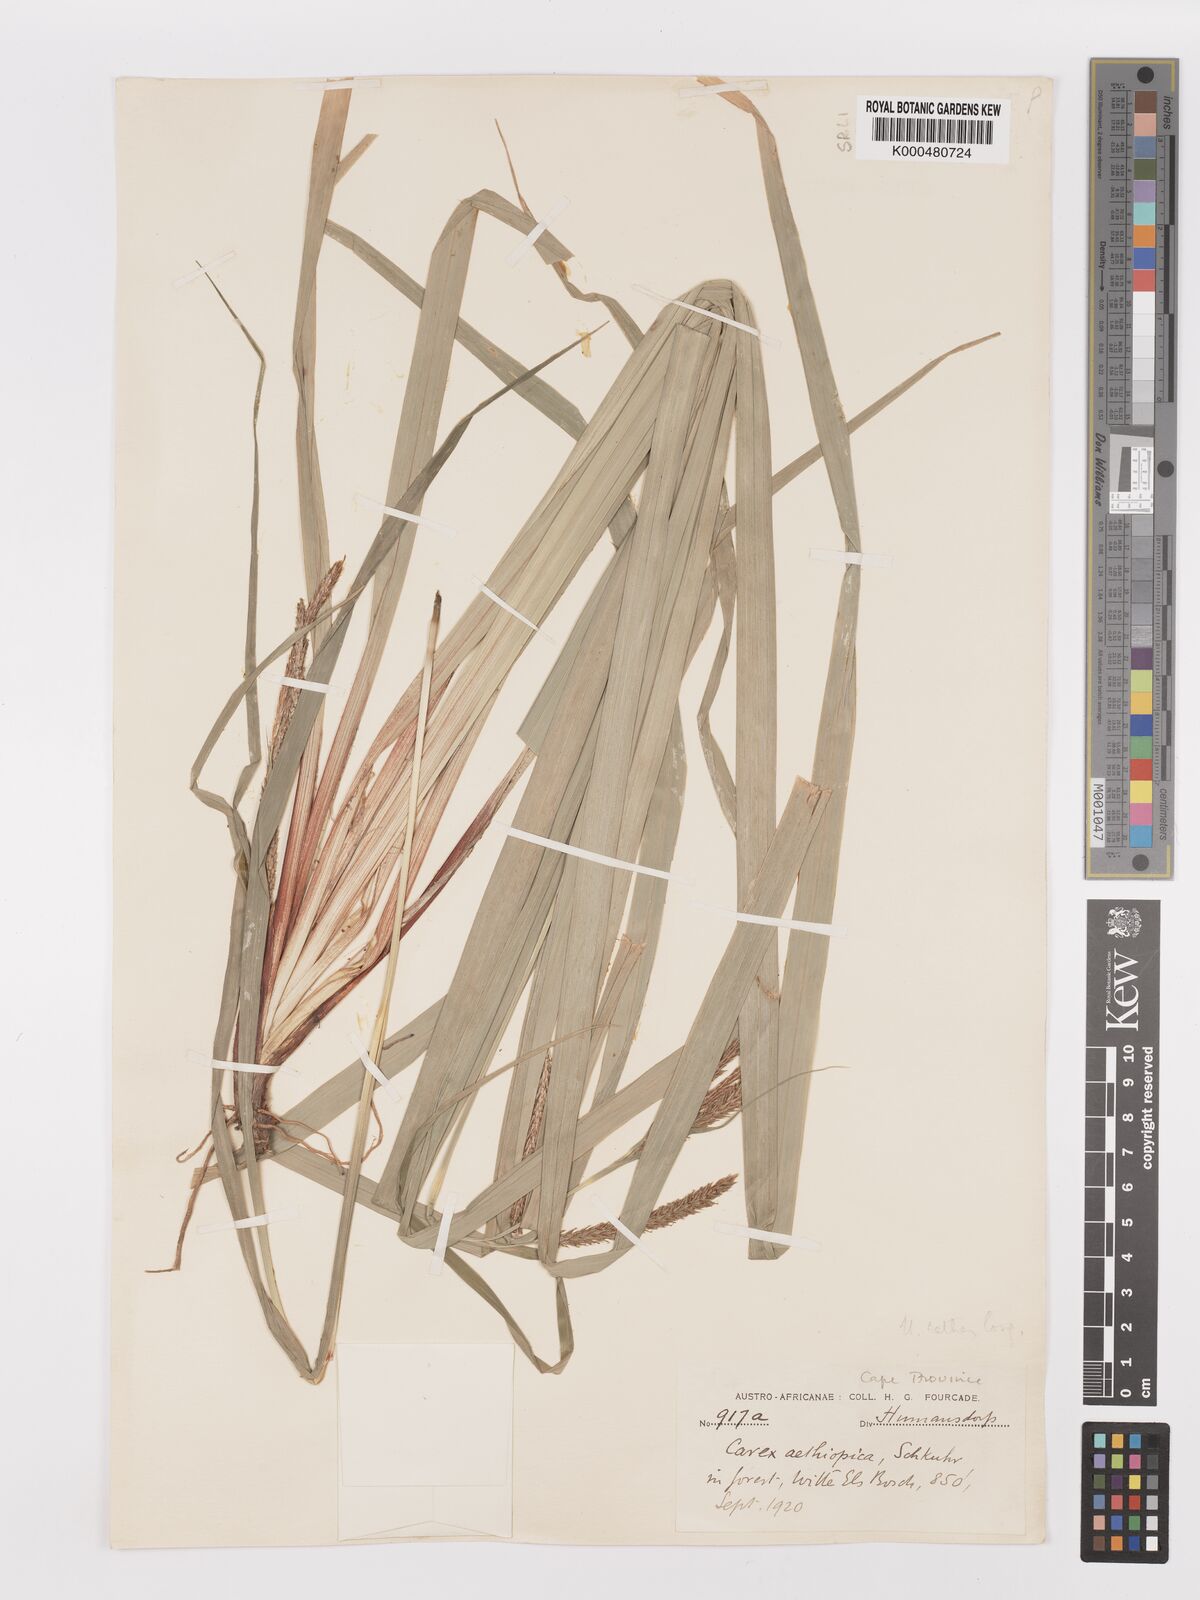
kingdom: Plantae
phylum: Tracheophyta
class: Liliopsida
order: Poales
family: Cyperaceae
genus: Carex
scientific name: Carex aethiopica
